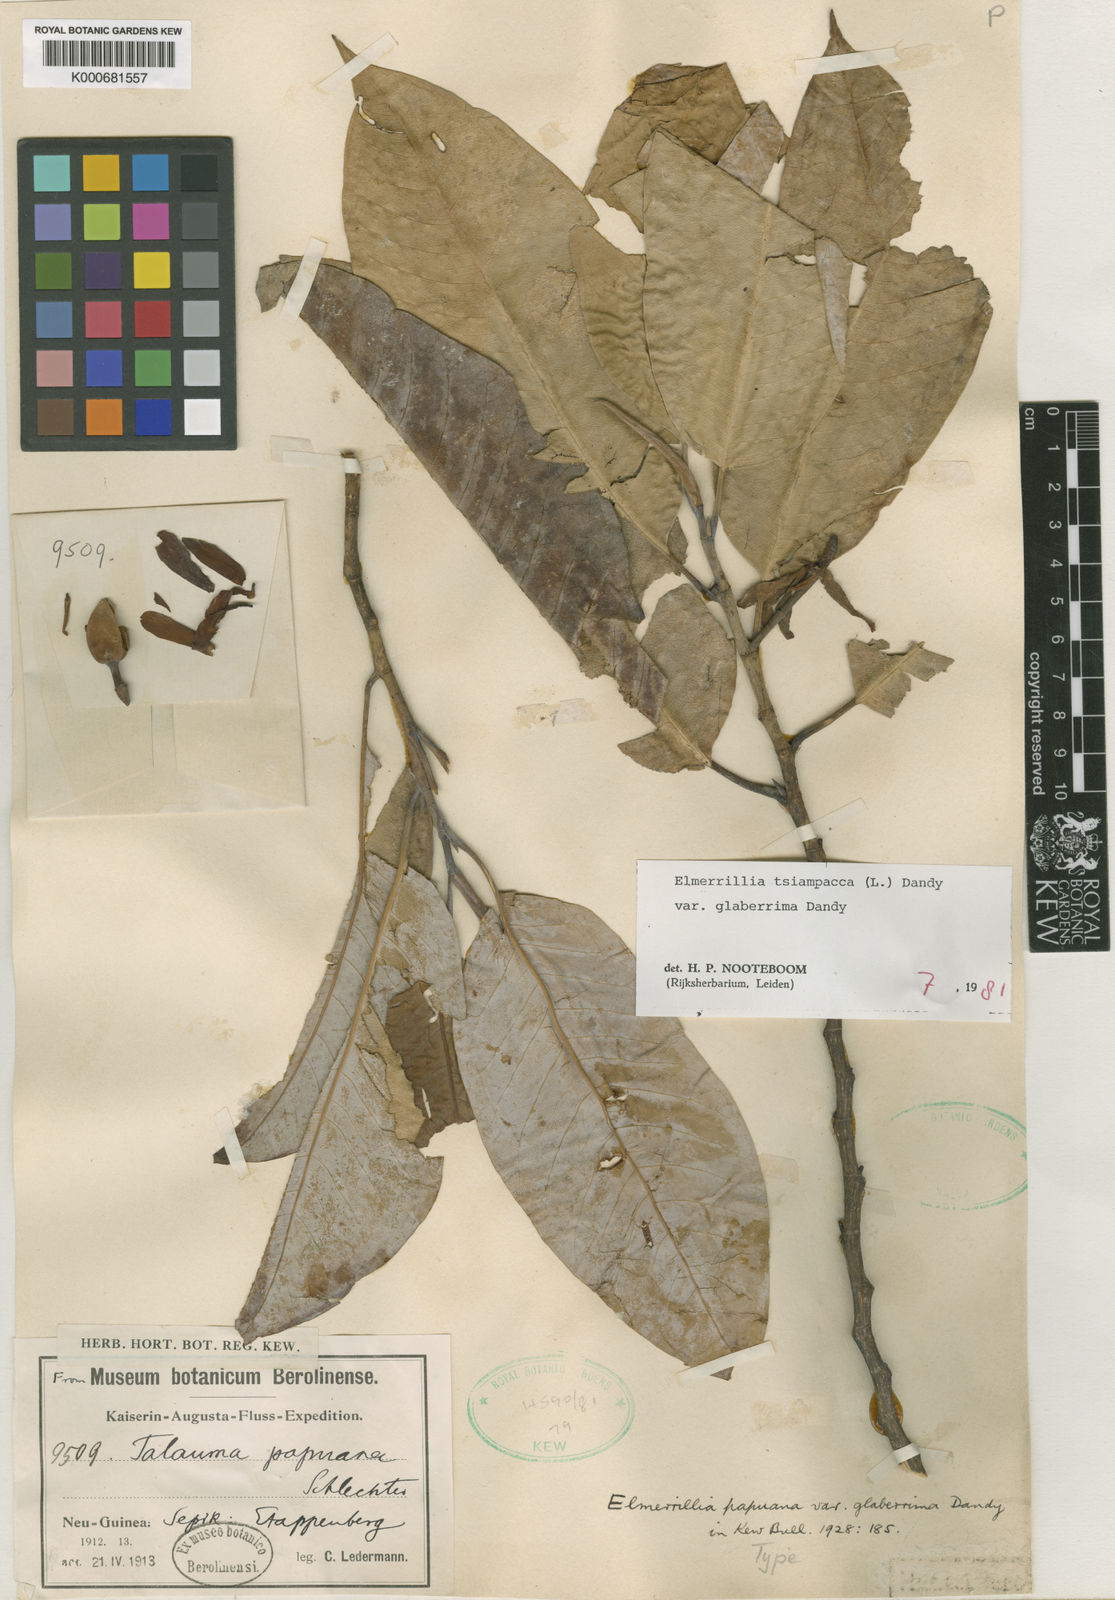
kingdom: Plantae
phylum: Tracheophyta
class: Magnoliopsida
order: Magnoliales
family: Magnoliaceae
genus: Magnolia
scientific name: Magnolia tsiampacca
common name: Wau-beech
